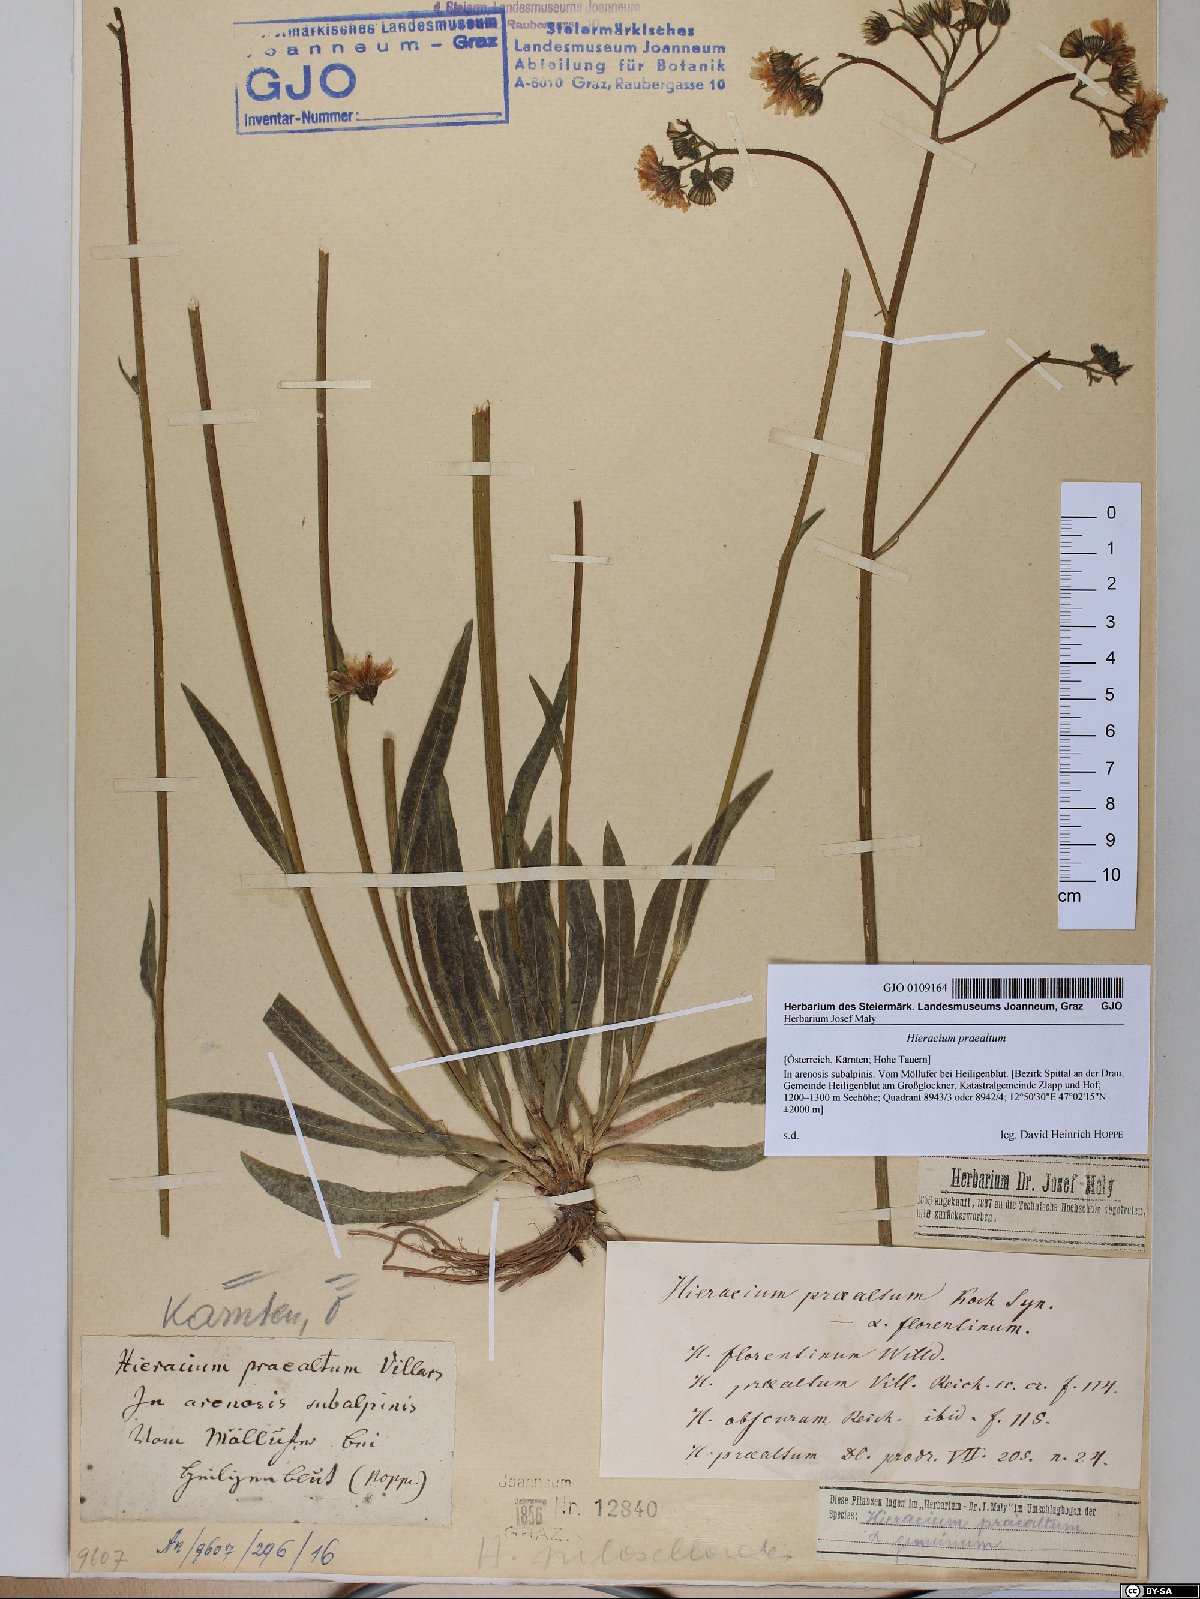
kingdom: Plantae
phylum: Tracheophyta
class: Magnoliopsida
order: Asterales
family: Asteraceae
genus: Pilosella
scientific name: Pilosella piloselloides
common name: Glaucous king-devil
